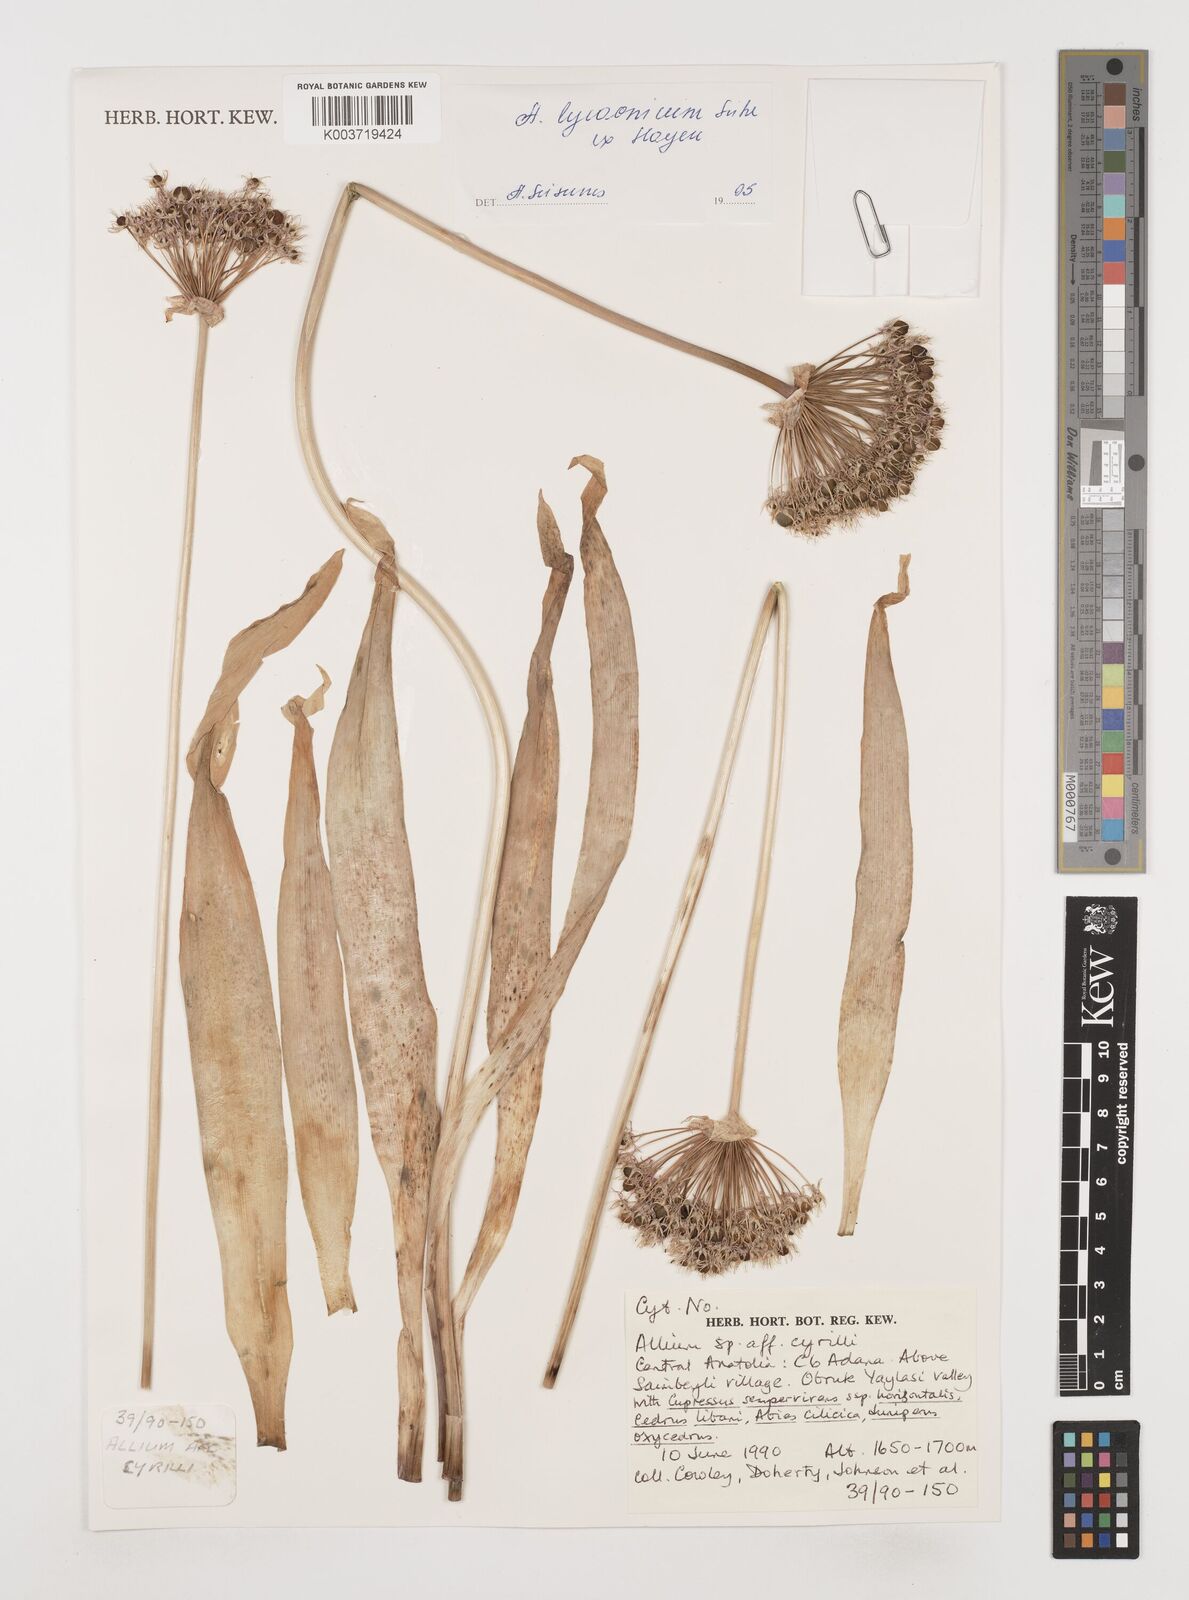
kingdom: Plantae
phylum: Tracheophyta
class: Liliopsida
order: Asparagales
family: Amaryllidaceae
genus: Allium
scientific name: Allium cyrilli
